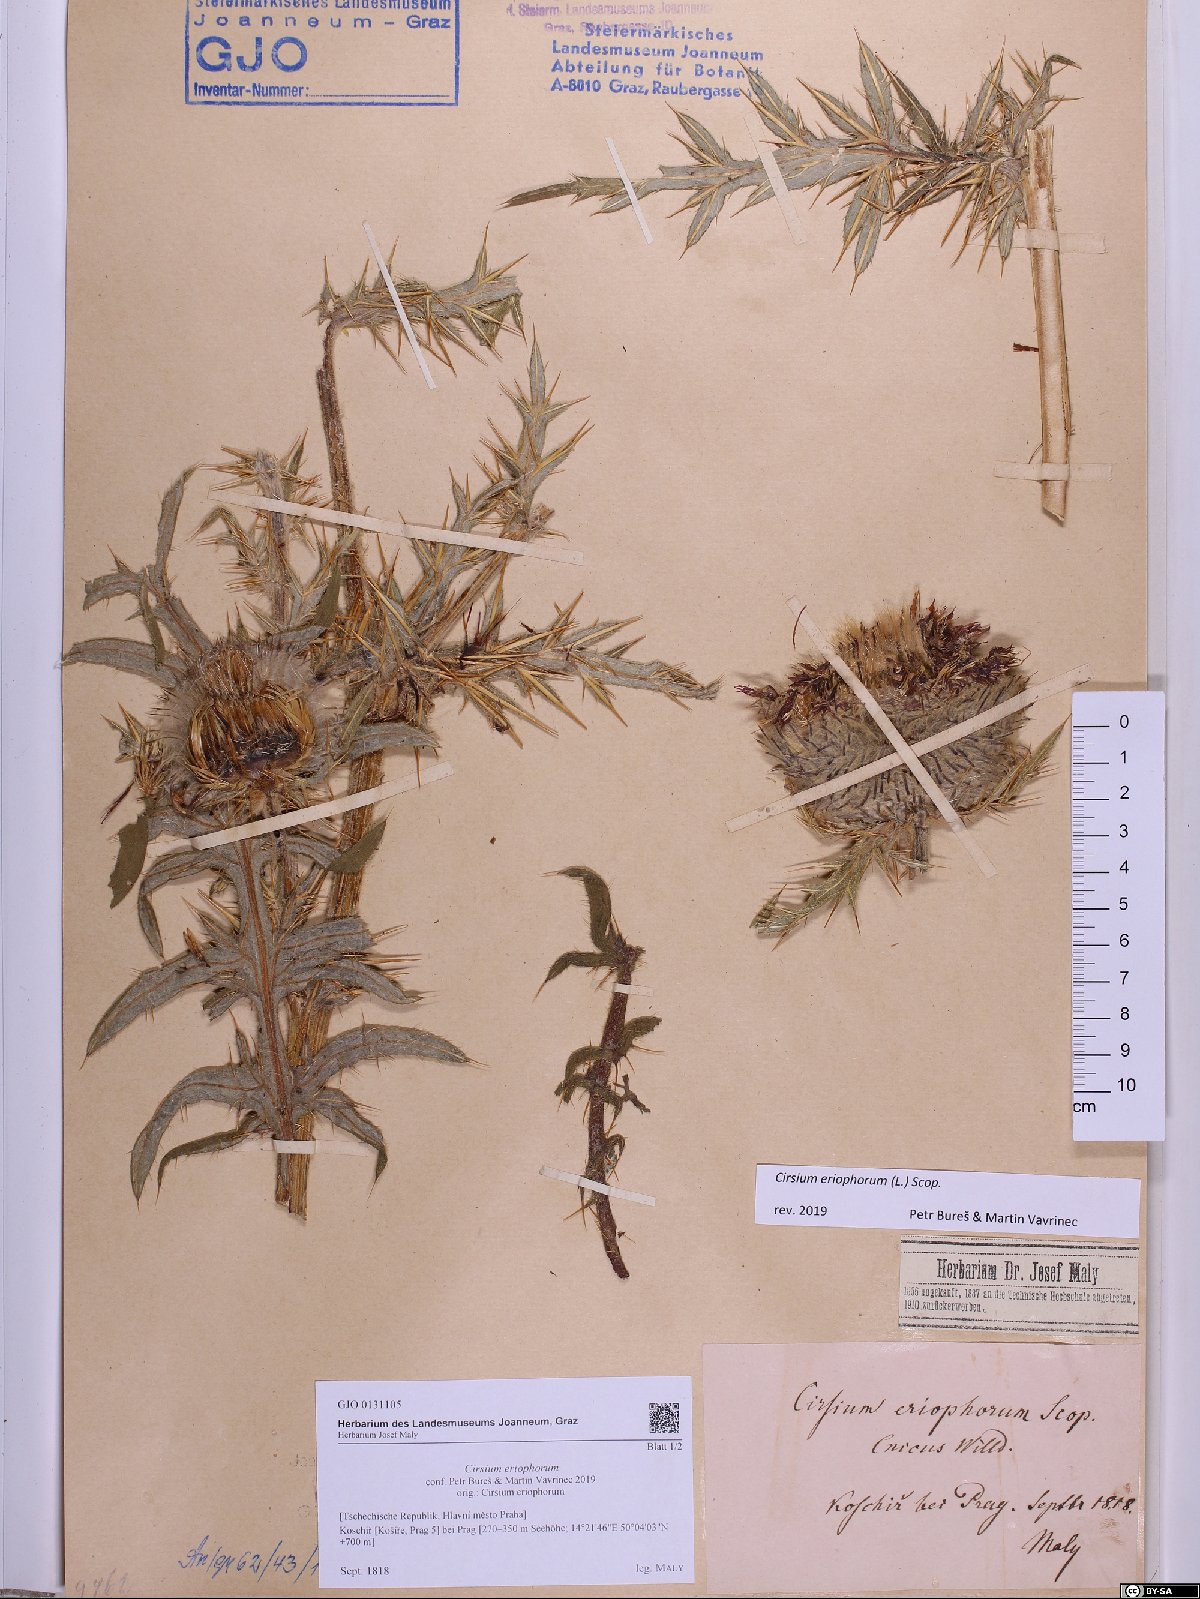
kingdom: Plantae
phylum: Tracheophyta
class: Magnoliopsida
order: Asterales
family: Asteraceae
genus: Lophiolepis
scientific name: Lophiolepis eriophora
